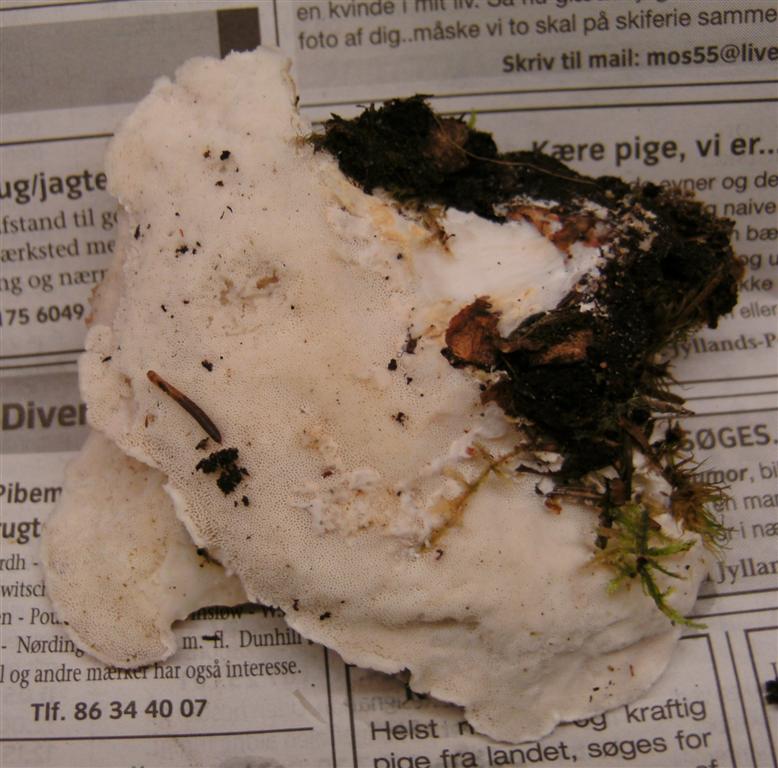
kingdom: Fungi
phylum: Basidiomycota
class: Agaricomycetes
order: Polyporales
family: Dacryobolaceae
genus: Postia
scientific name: Postia tephroleuca
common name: grålig kødporesvamp
